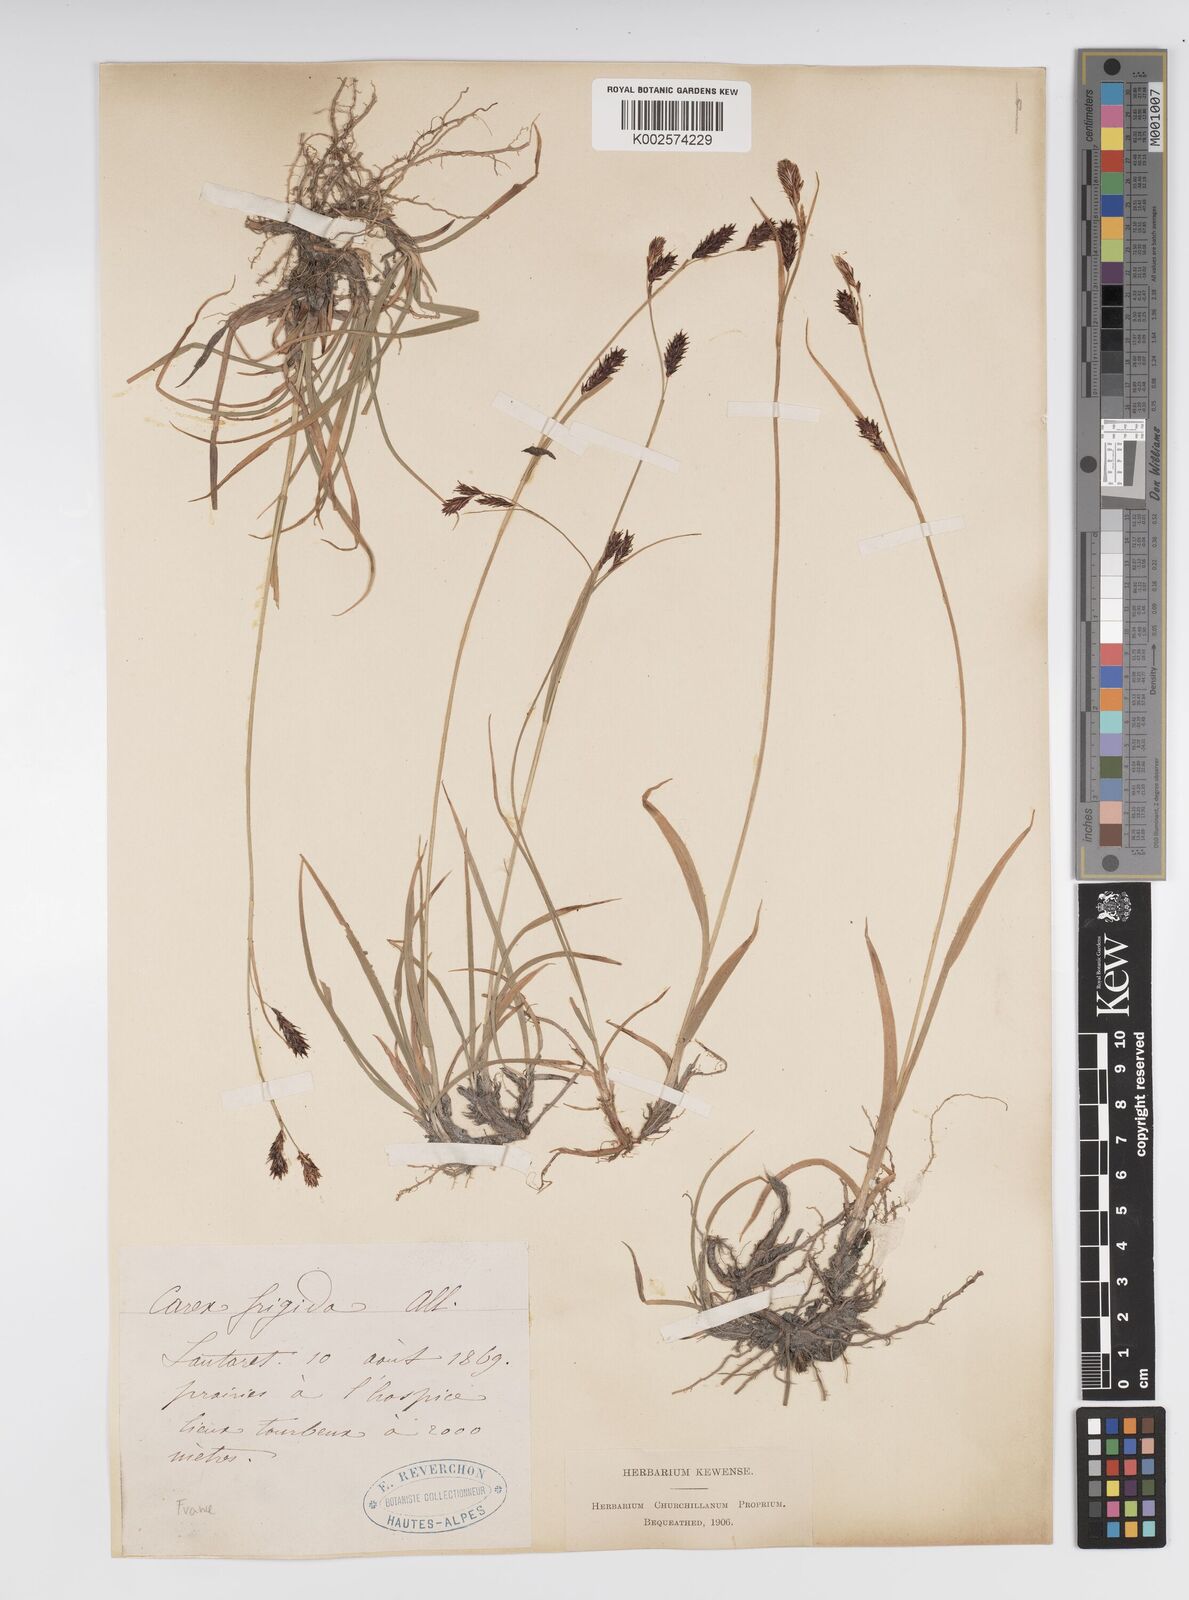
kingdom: Plantae
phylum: Tracheophyta
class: Liliopsida
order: Poales
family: Cyperaceae
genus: Carex
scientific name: Carex frigida
